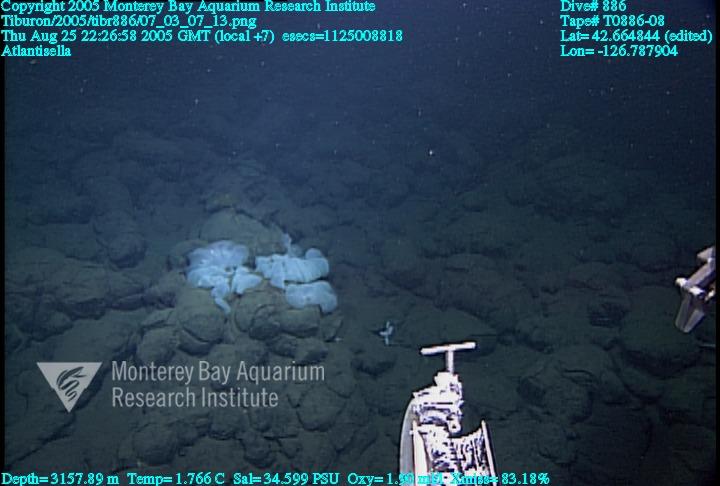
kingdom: Animalia
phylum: Porifera
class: Hexactinellida
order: Lyssacinosida
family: Euplectellidae
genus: Atlantisella
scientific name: Atlantisella
